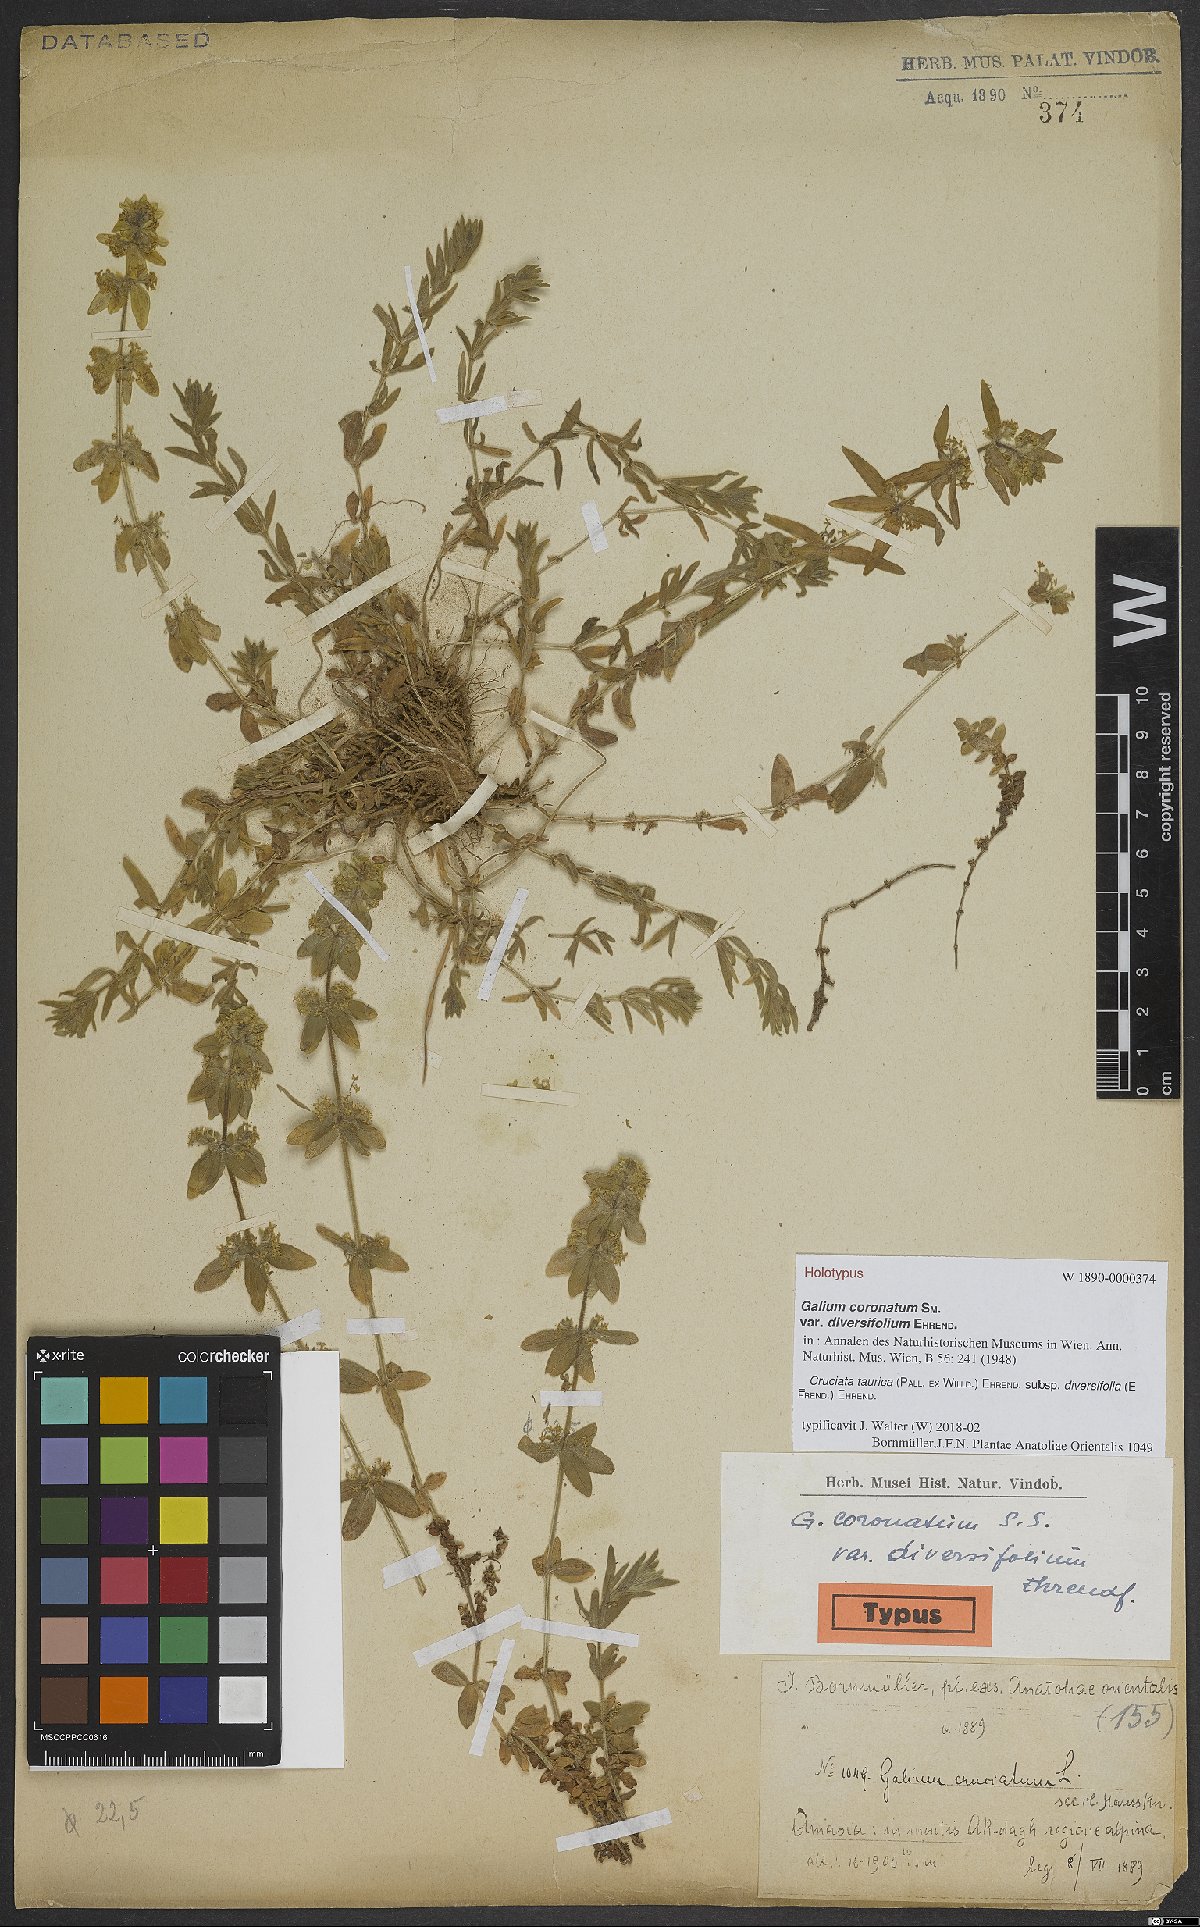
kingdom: Plantae
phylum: Tracheophyta
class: Magnoliopsida
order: Gentianales
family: Rubiaceae
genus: Cruciata
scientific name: Cruciata taurica
